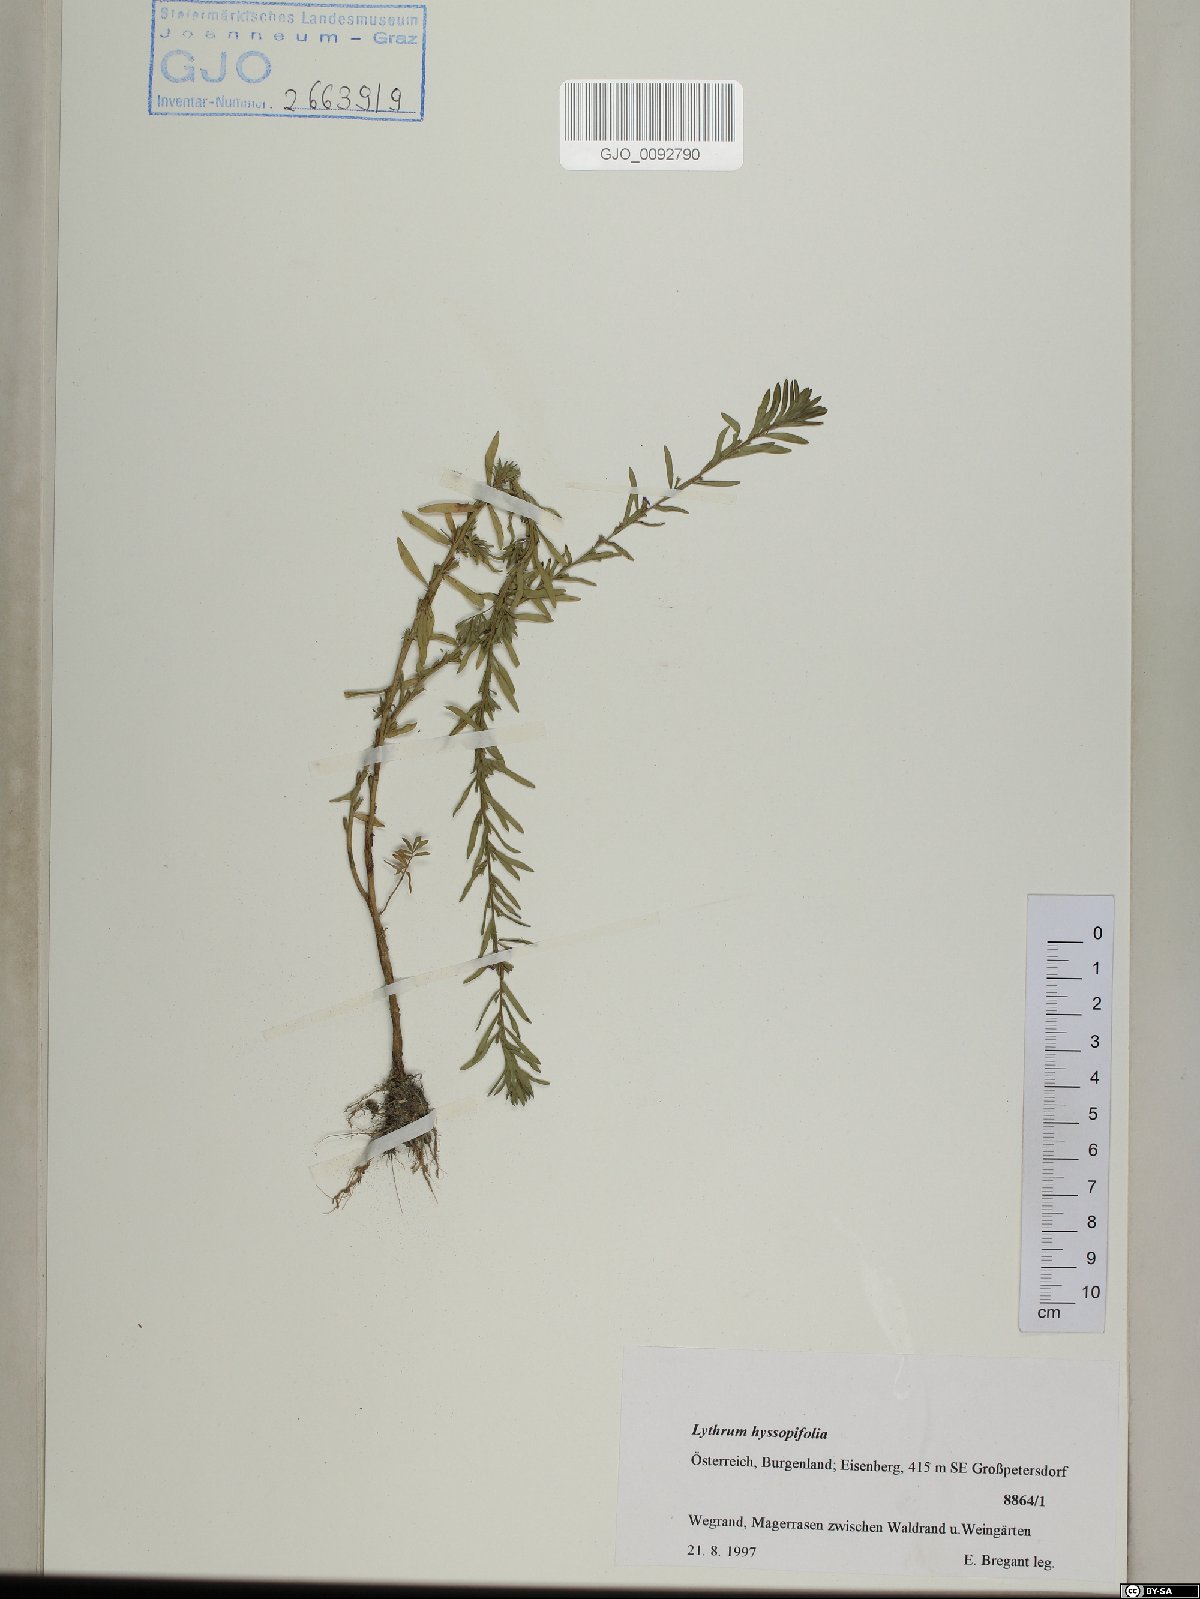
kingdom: Plantae
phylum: Tracheophyta
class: Magnoliopsida
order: Myrtales
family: Lythraceae
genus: Lythrum
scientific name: Lythrum hyssopifolia
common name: Grass-poly
